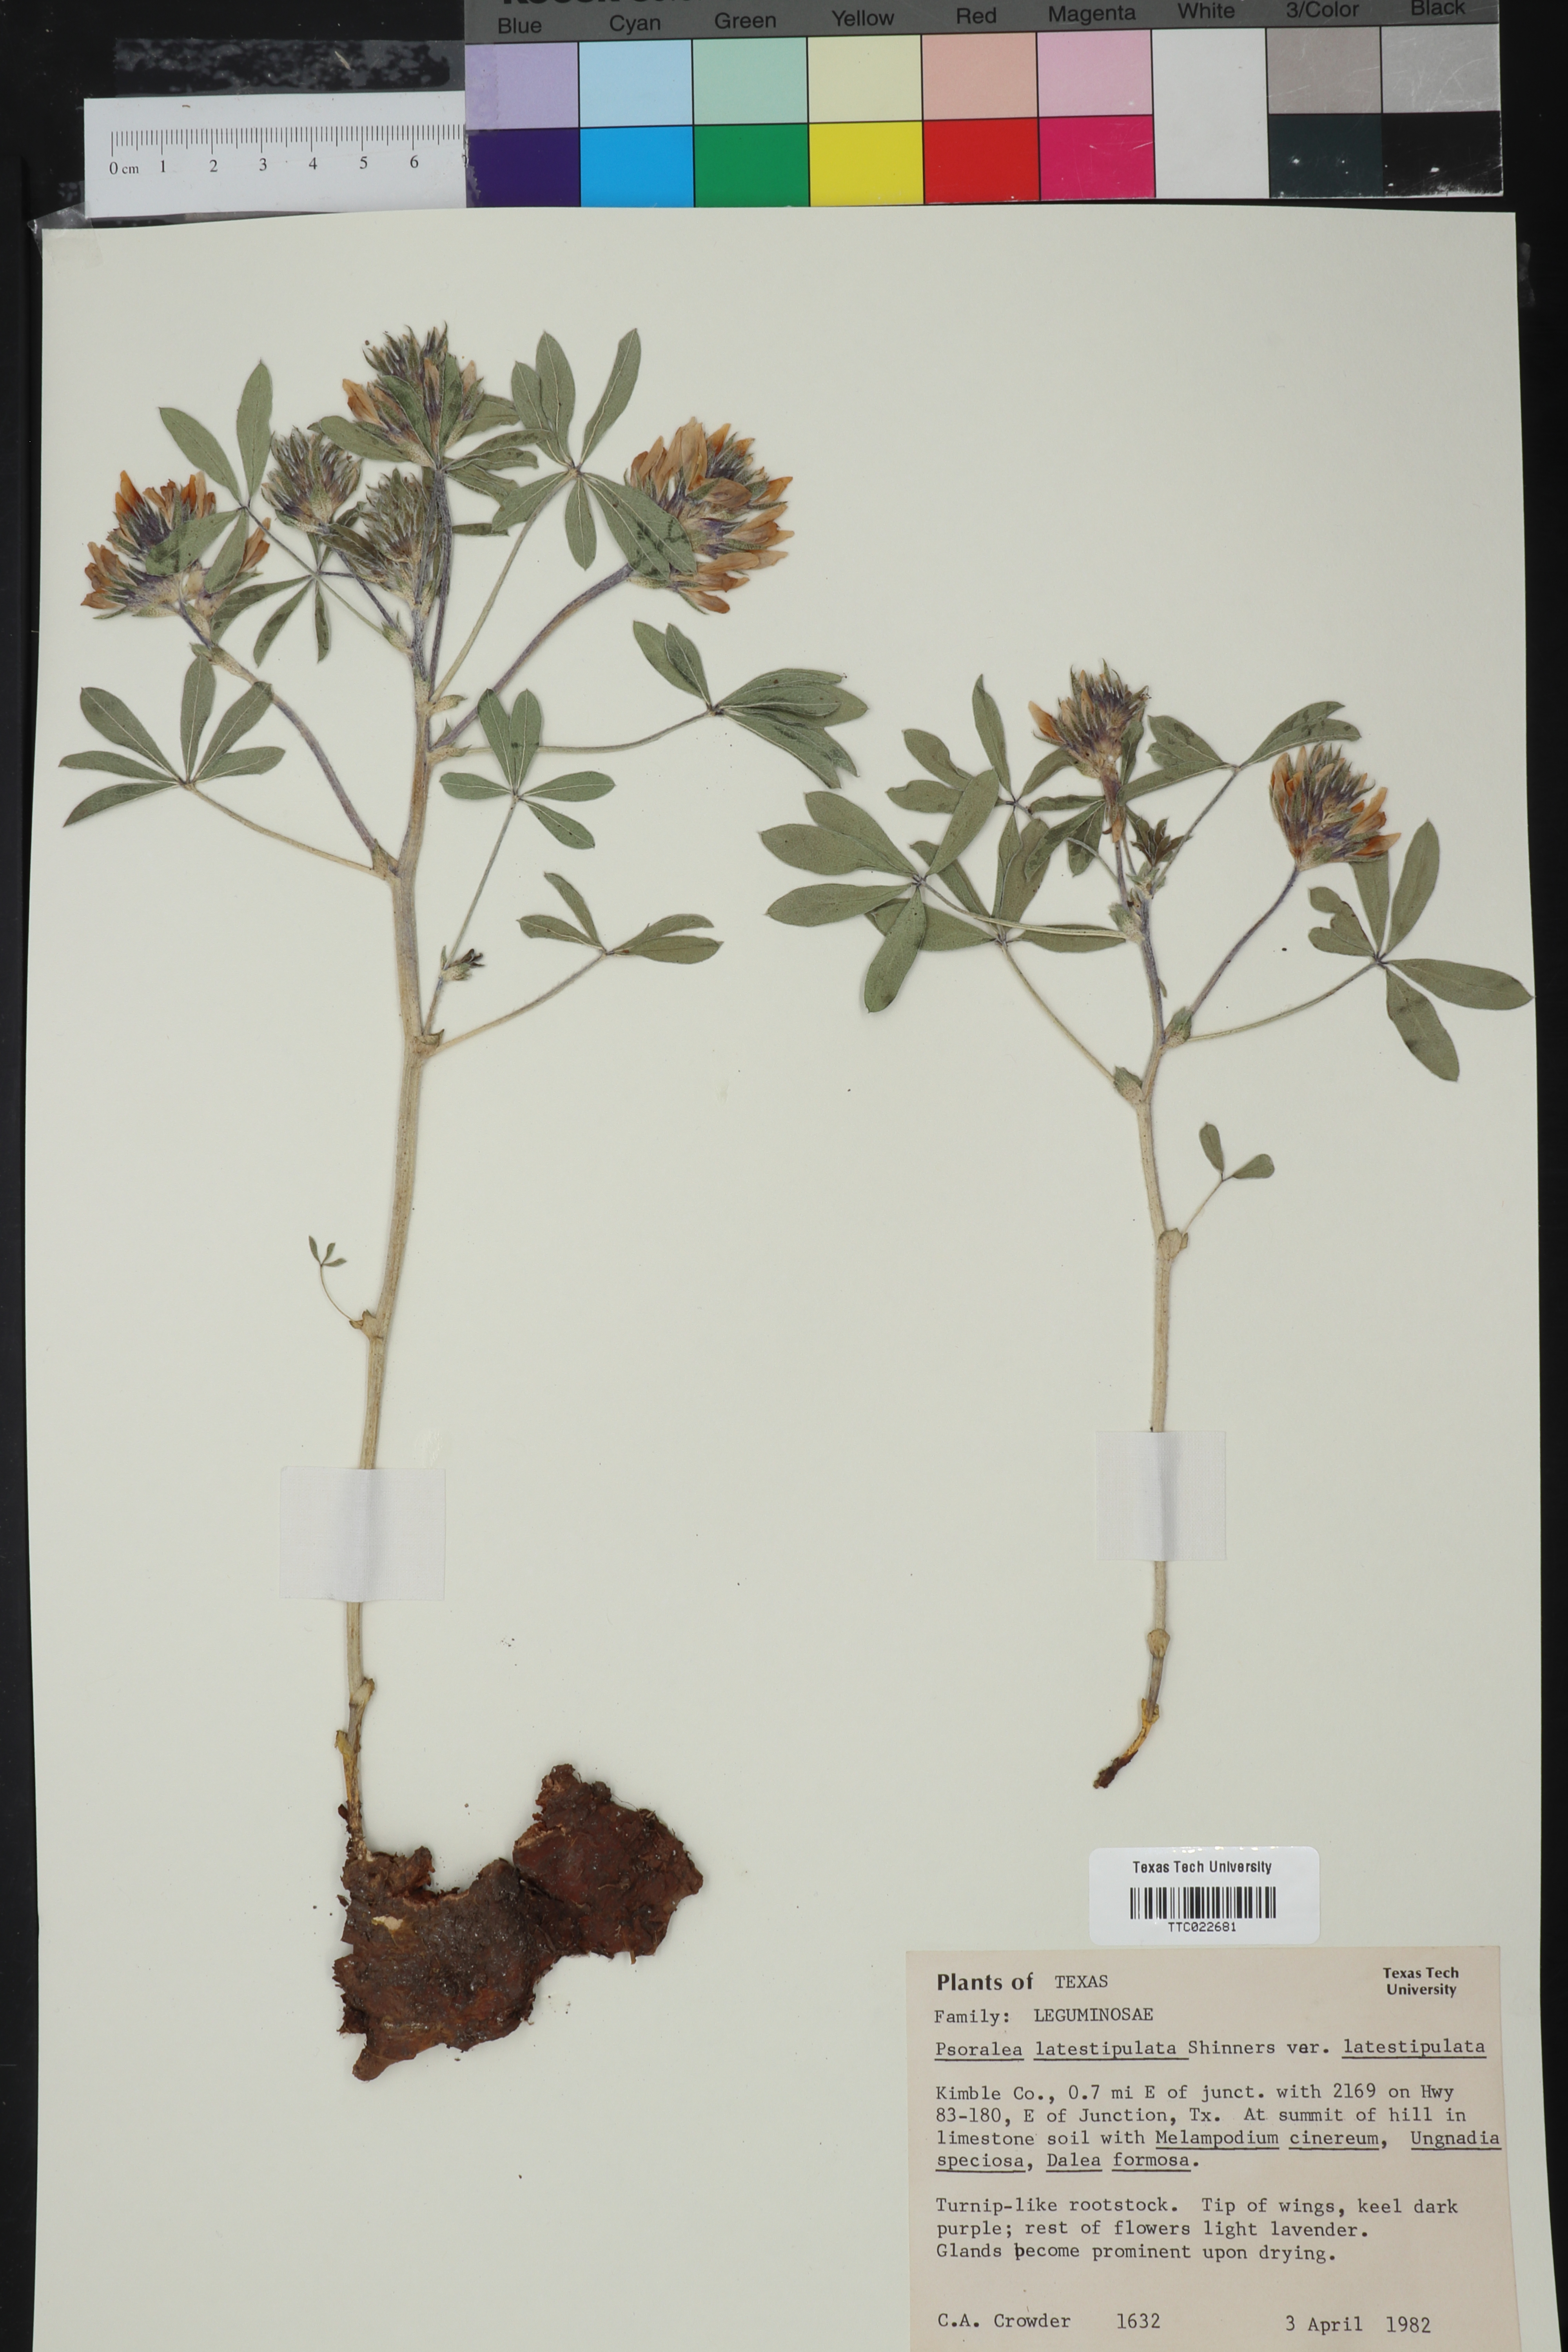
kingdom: Plantae
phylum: Tracheophyta
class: Magnoliopsida
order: Fabales
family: Fabaceae
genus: Pediomelum
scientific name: Pediomelum latestipulatum
